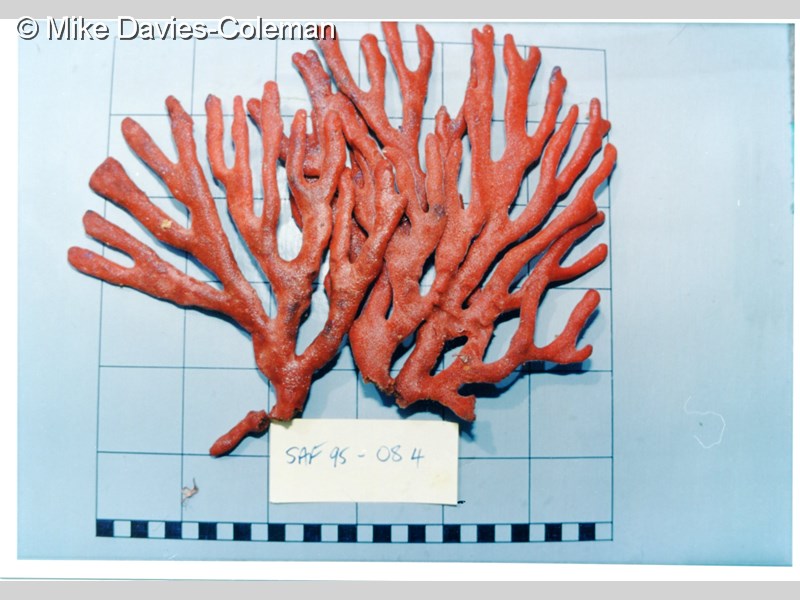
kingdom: Animalia
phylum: Porifera
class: Demospongiae
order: Axinellida
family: Axinellidae
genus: Axinella
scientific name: Axinella
